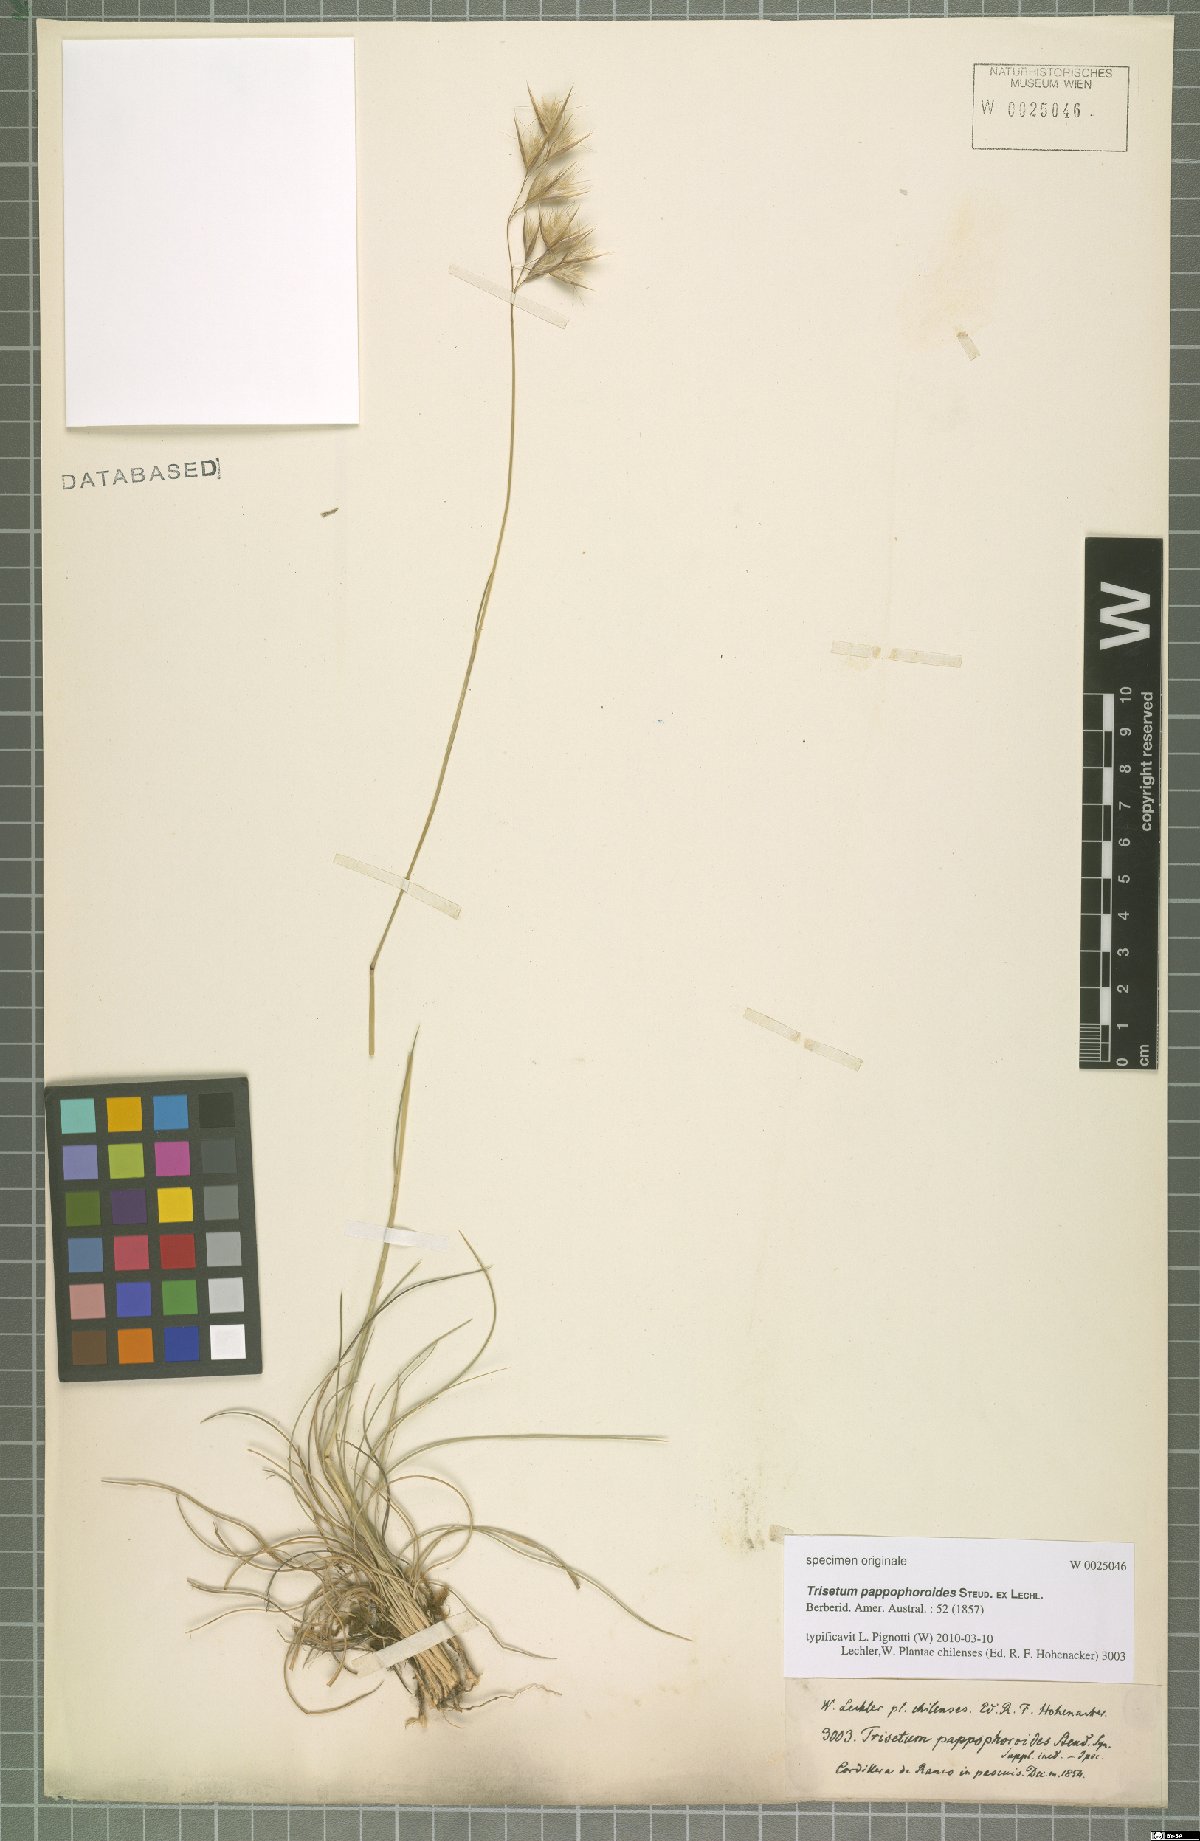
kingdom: Plantae
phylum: Tracheophyta
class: Liliopsida
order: Poales
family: Poaceae
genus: Trisetum
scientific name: Trisetum pappophoroides
